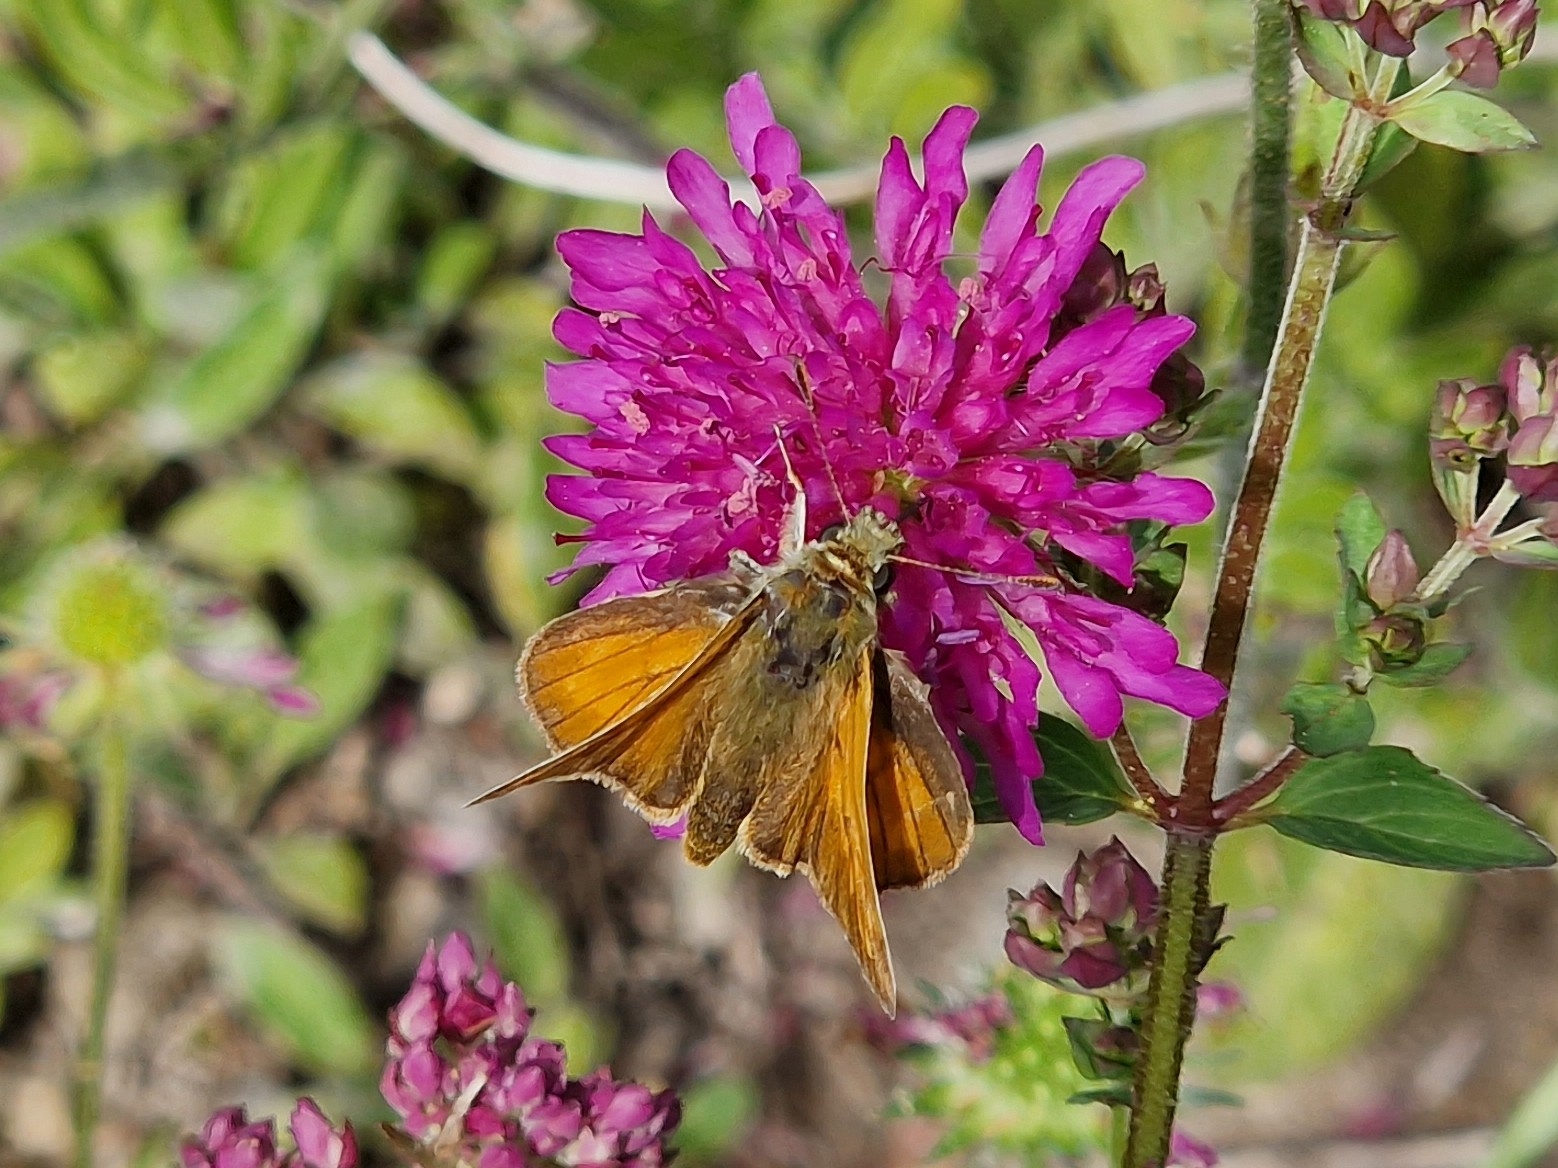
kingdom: Animalia
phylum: Arthropoda
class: Insecta
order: Lepidoptera
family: Hesperiidae
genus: Ochlodes
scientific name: Ochlodes venata
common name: Stor bredpande
